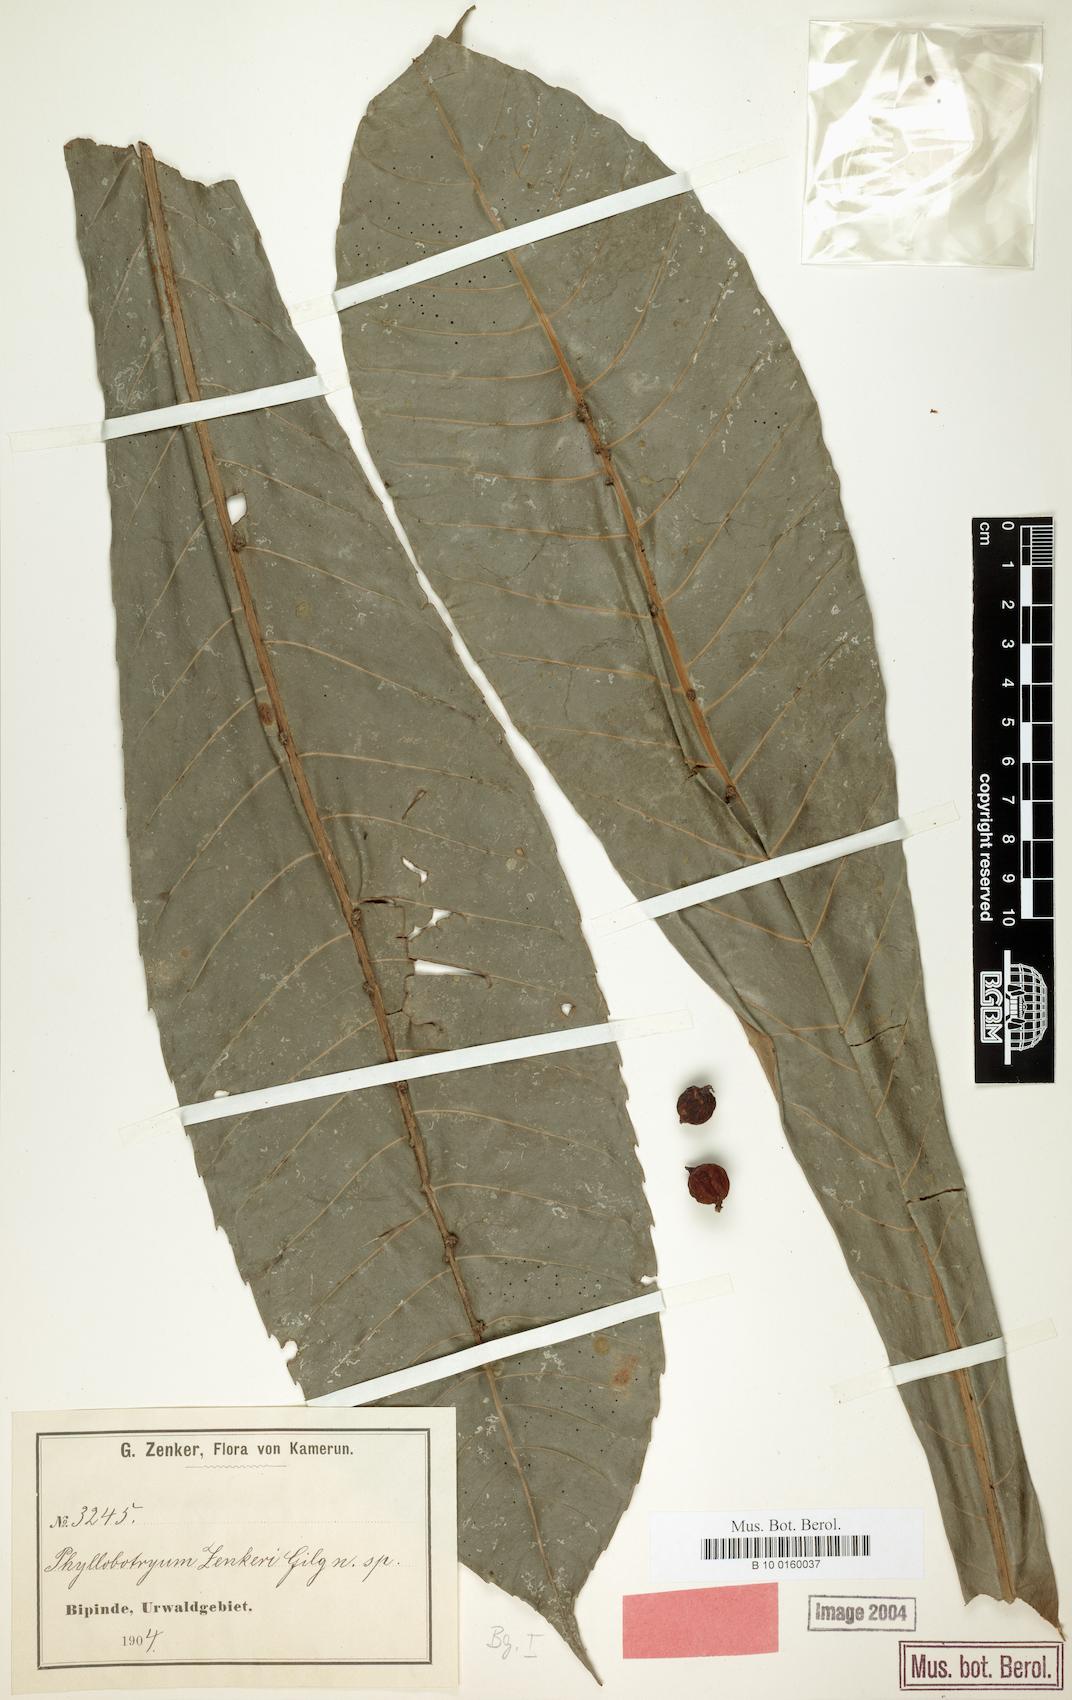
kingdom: Plantae
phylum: Tracheophyta
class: Magnoliopsida
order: Malpighiales
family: Salicaceae
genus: Phyllobotryon
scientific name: Phyllobotryon spathulatum
